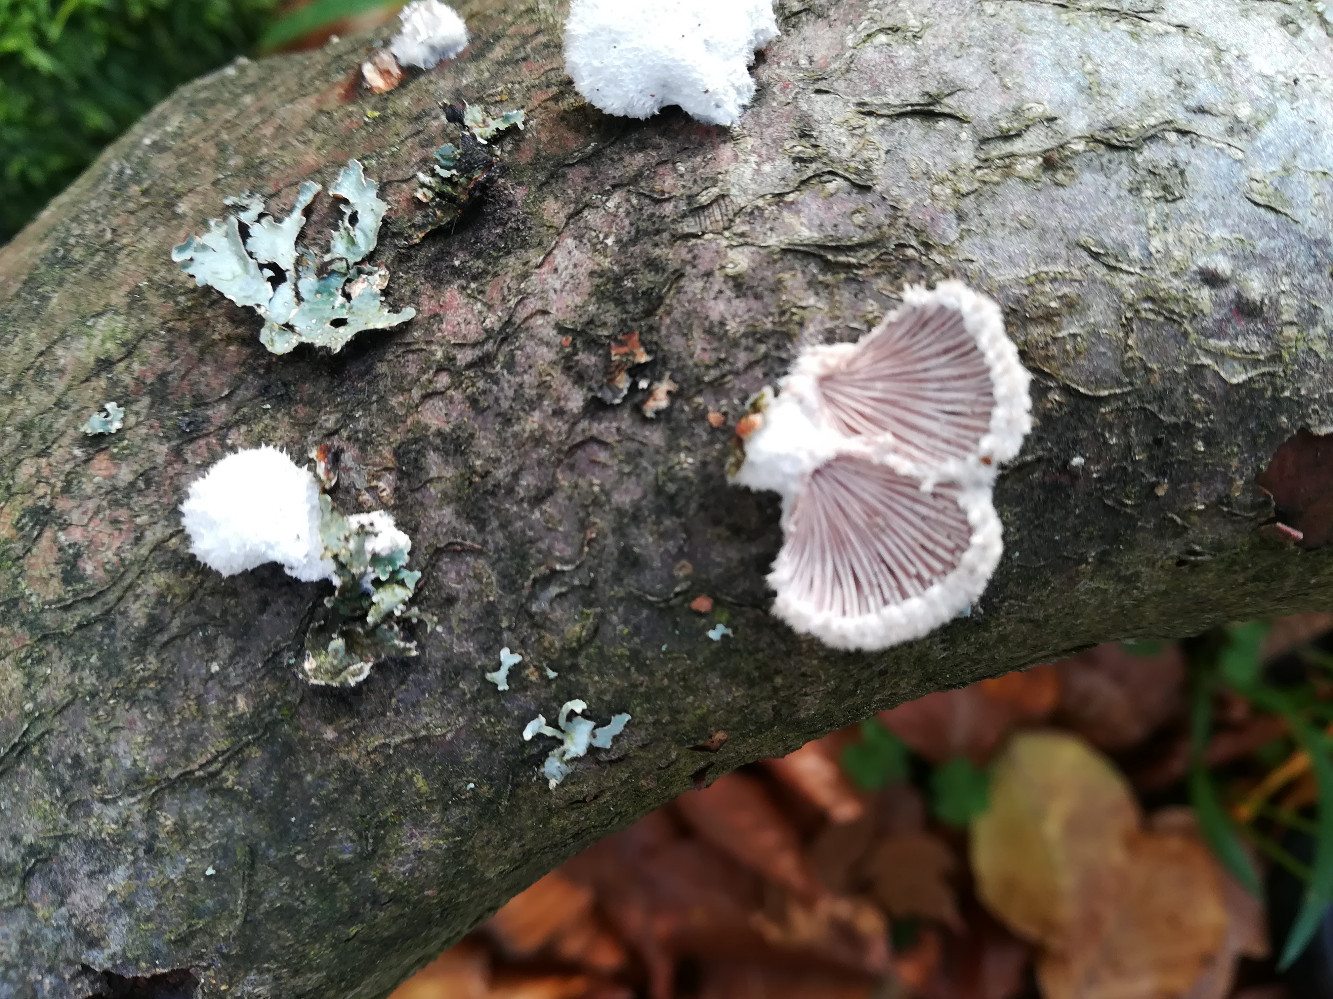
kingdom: Fungi
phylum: Basidiomycota
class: Agaricomycetes
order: Agaricales
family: Schizophyllaceae
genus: Schizophyllum
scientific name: Schizophyllum commune
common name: kløvblad
